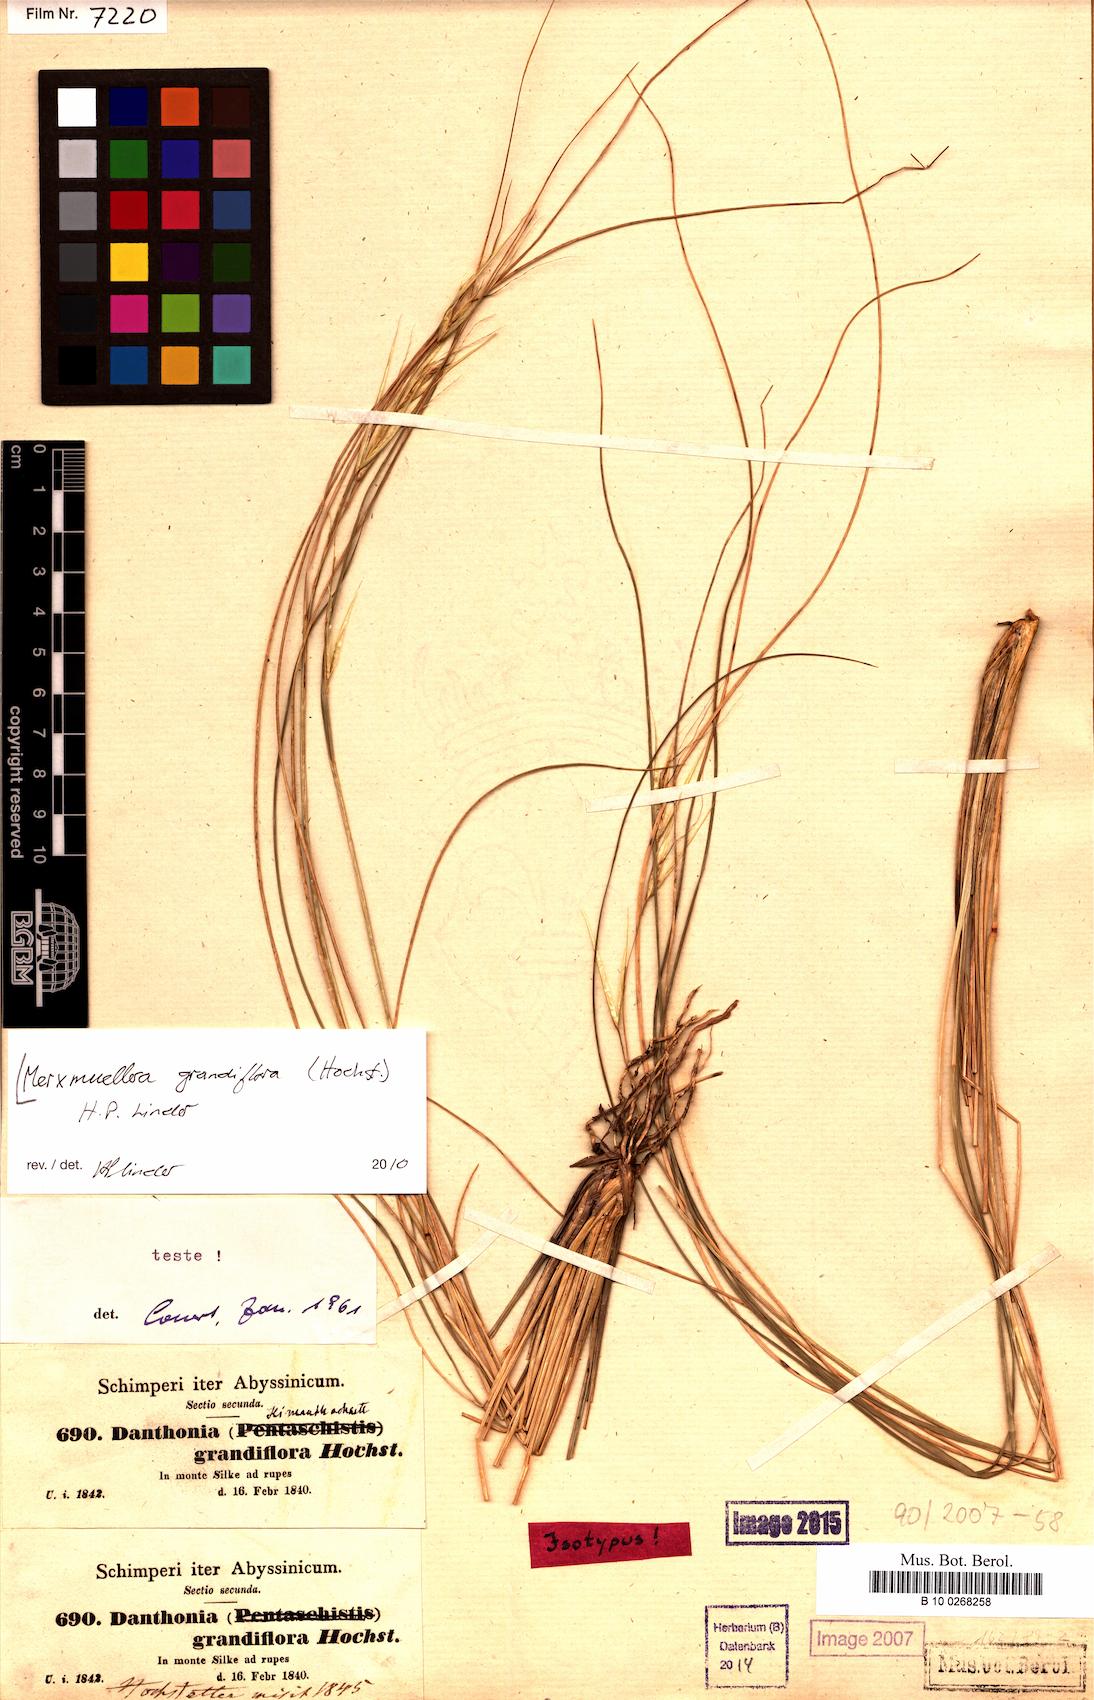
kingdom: Plantae
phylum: Tracheophyta
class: Liliopsida
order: Poales
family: Poaceae
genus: Merxmuellera
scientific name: Merxmuellera grandiflora
